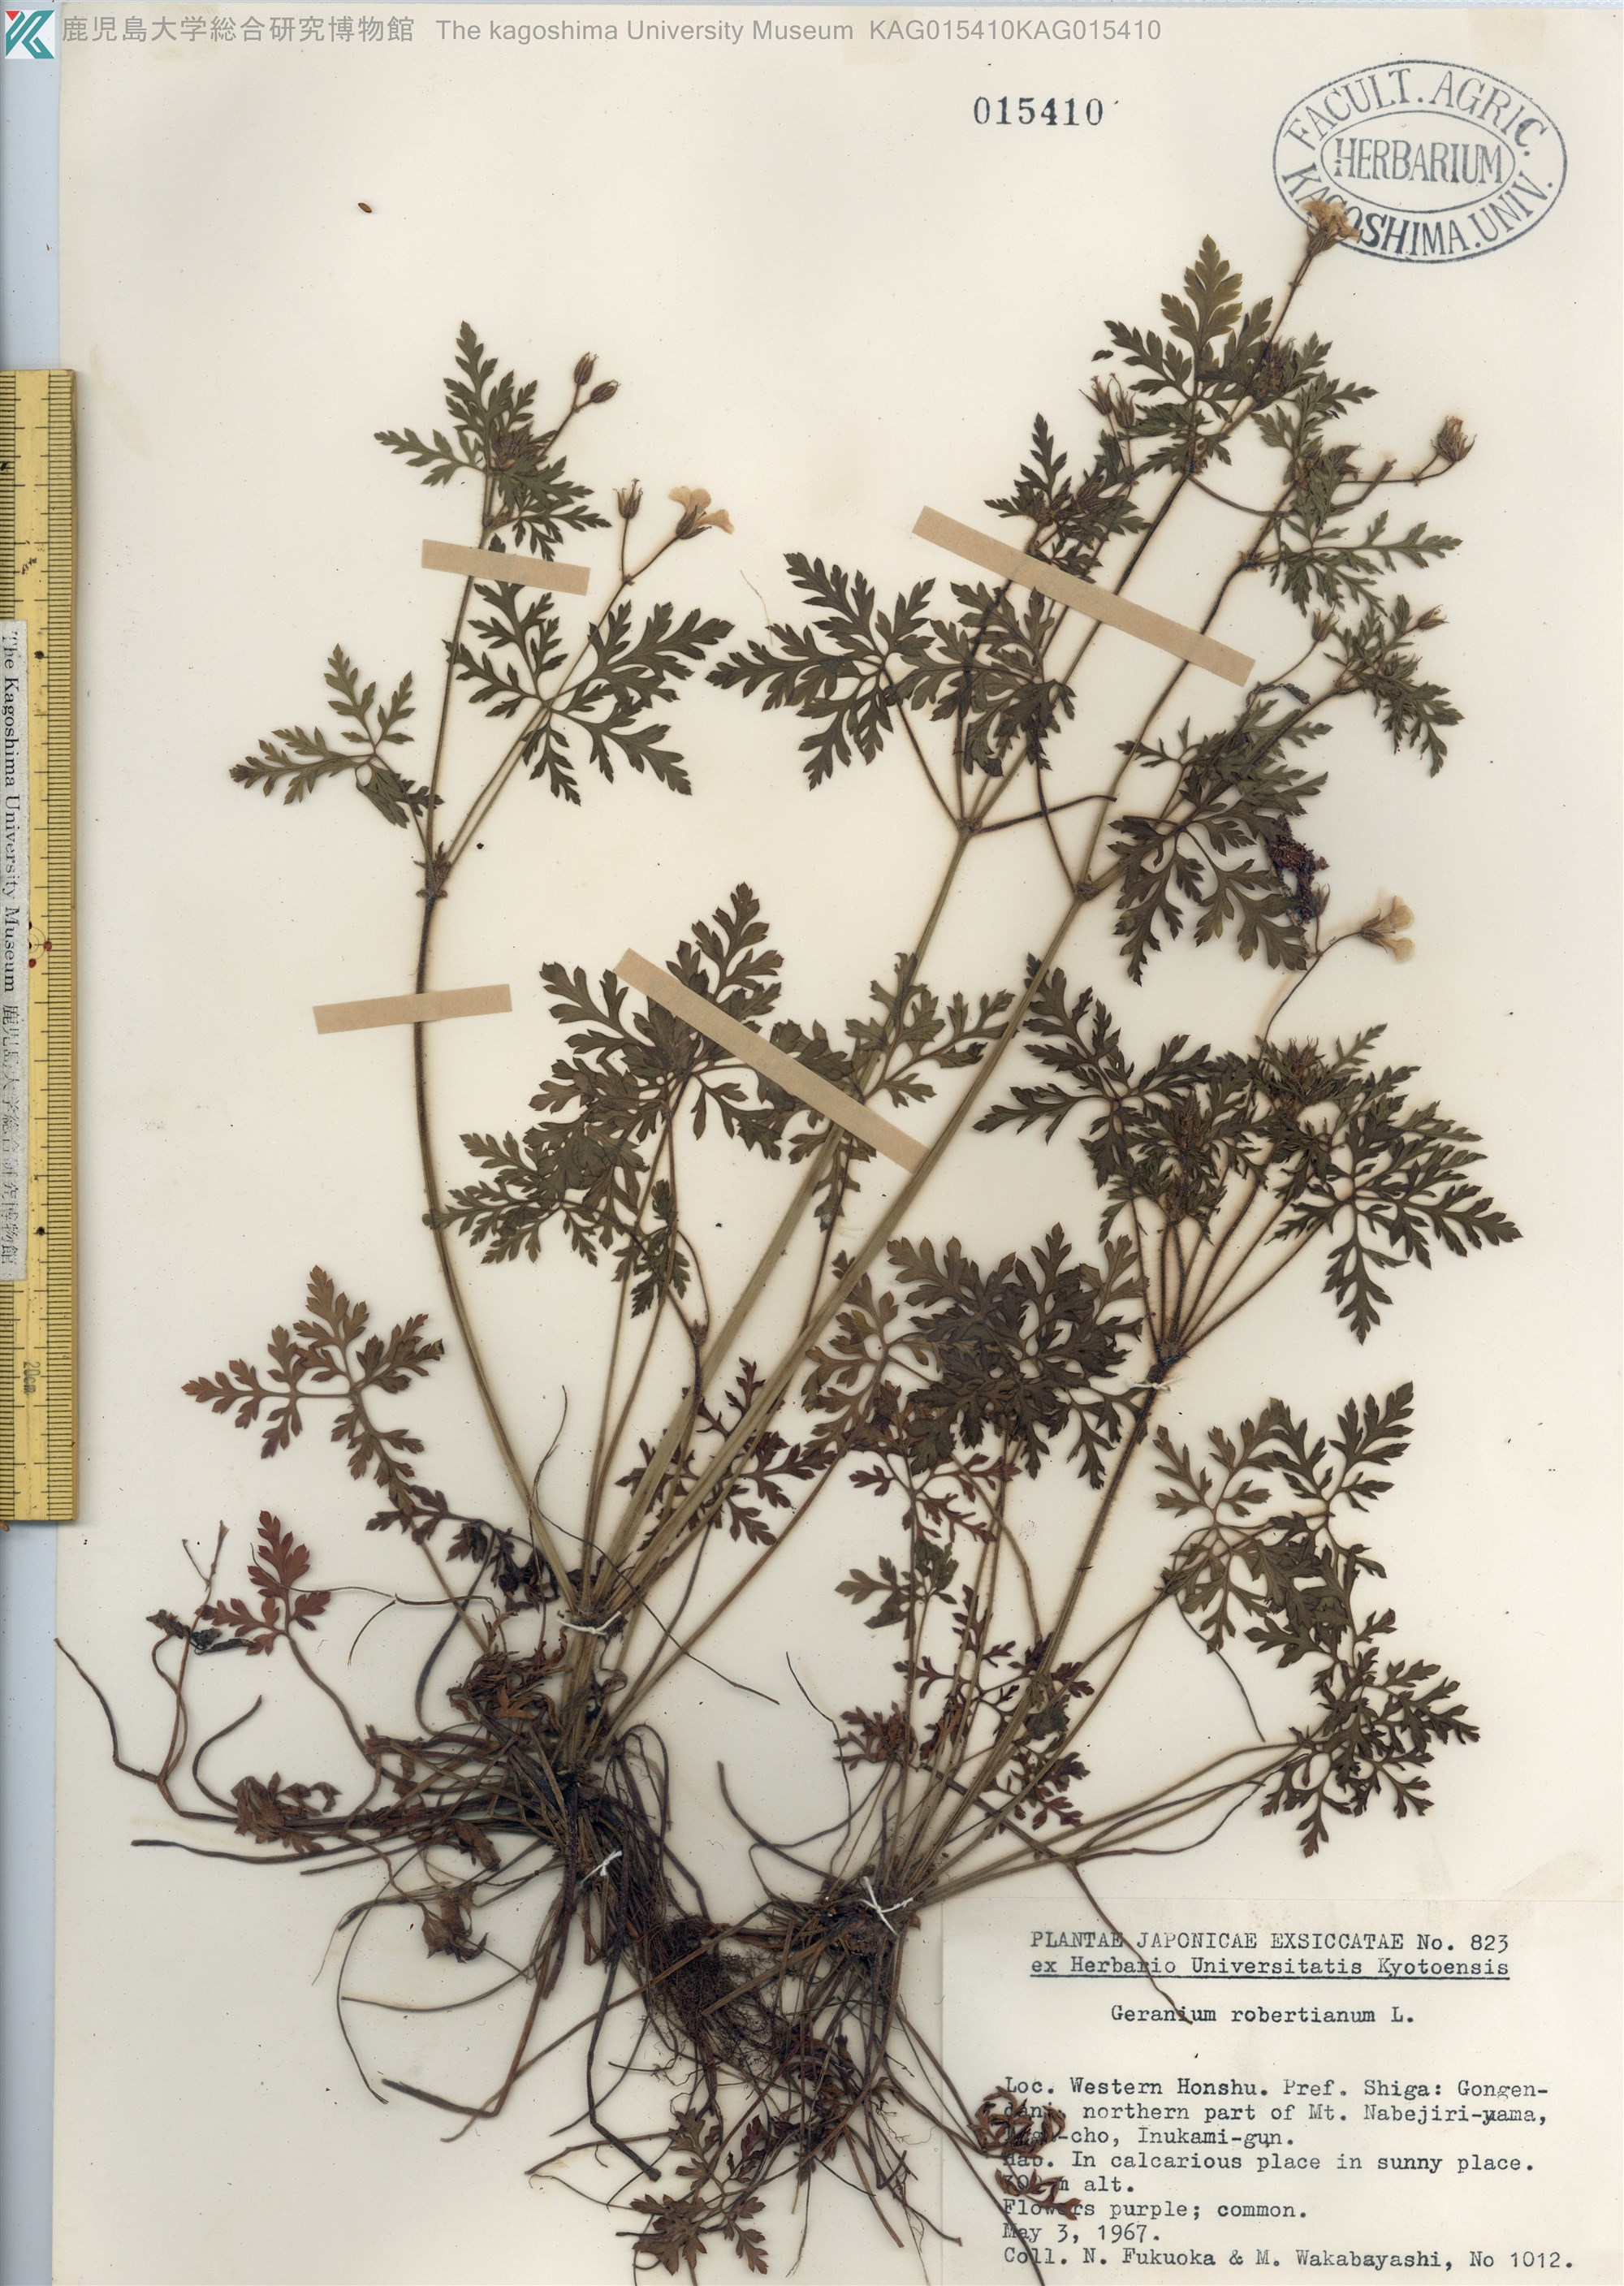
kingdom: Plantae
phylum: Tracheophyta
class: Magnoliopsida
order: Geraniales
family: Geraniaceae
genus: Geranium
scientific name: Geranium robertianum
